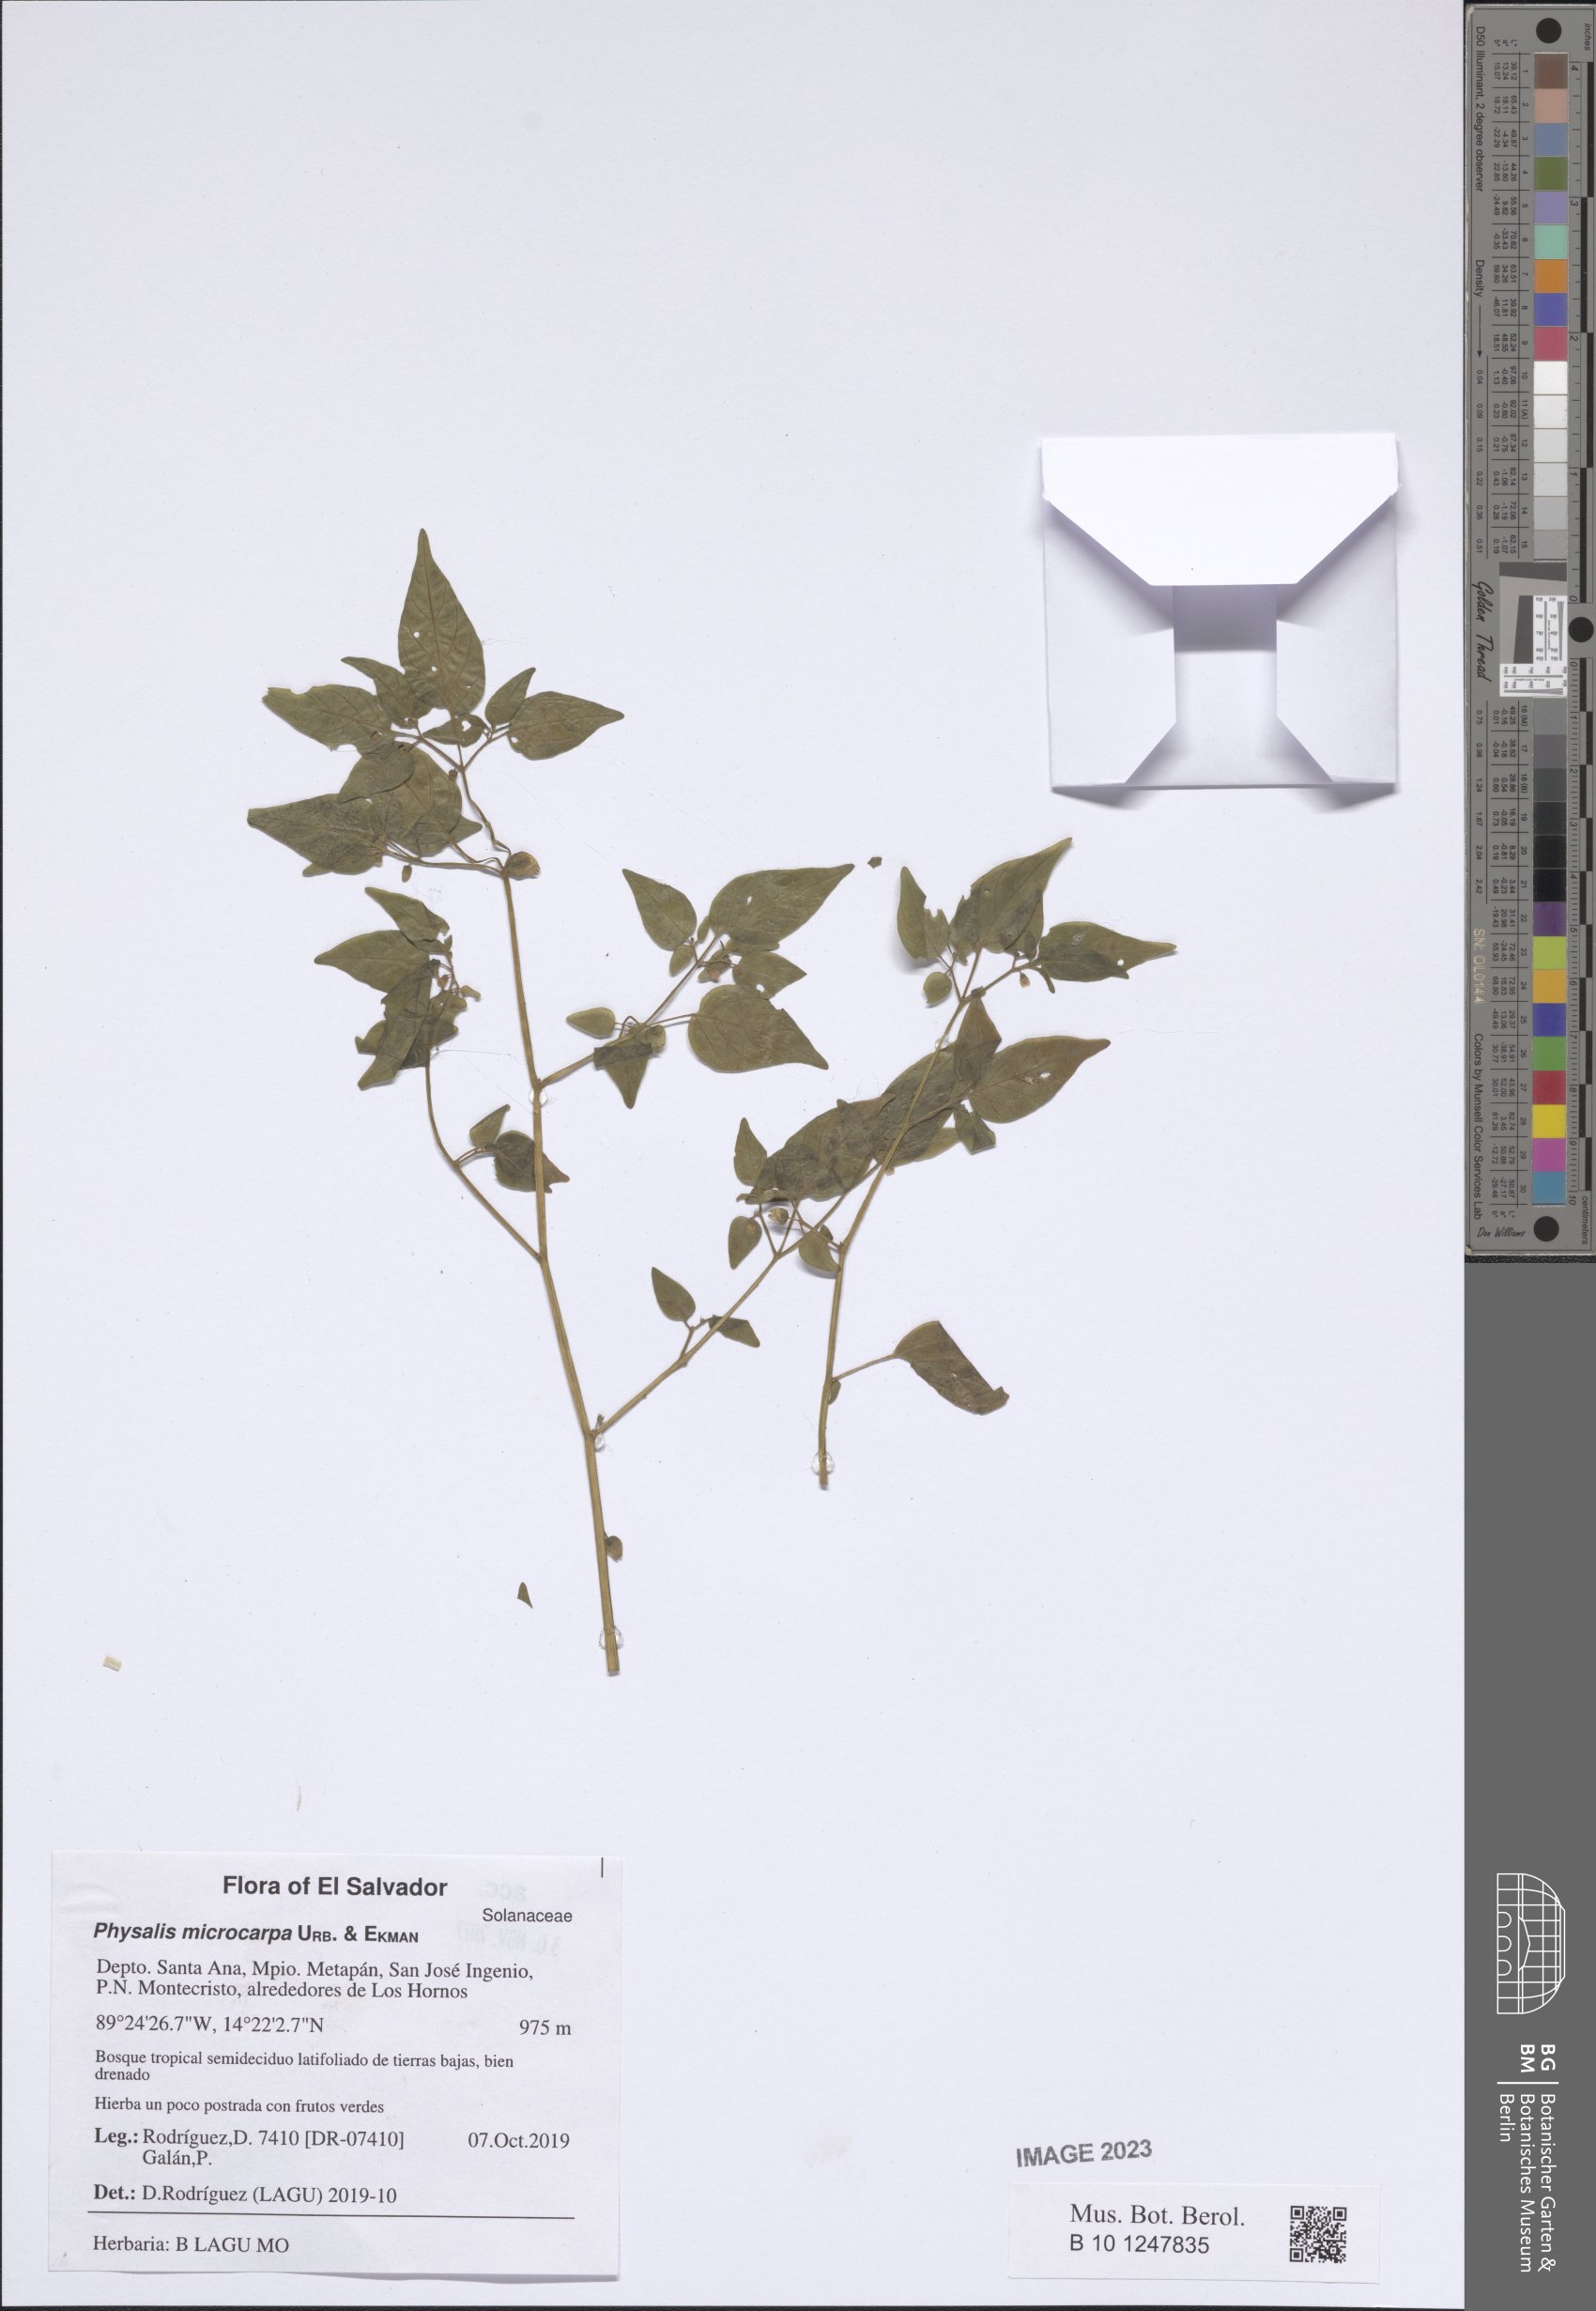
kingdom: Plantae
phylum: Tracheophyta
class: Magnoliopsida
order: Solanales
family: Solanaceae
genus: Physalis
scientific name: Physalis microcarpa
